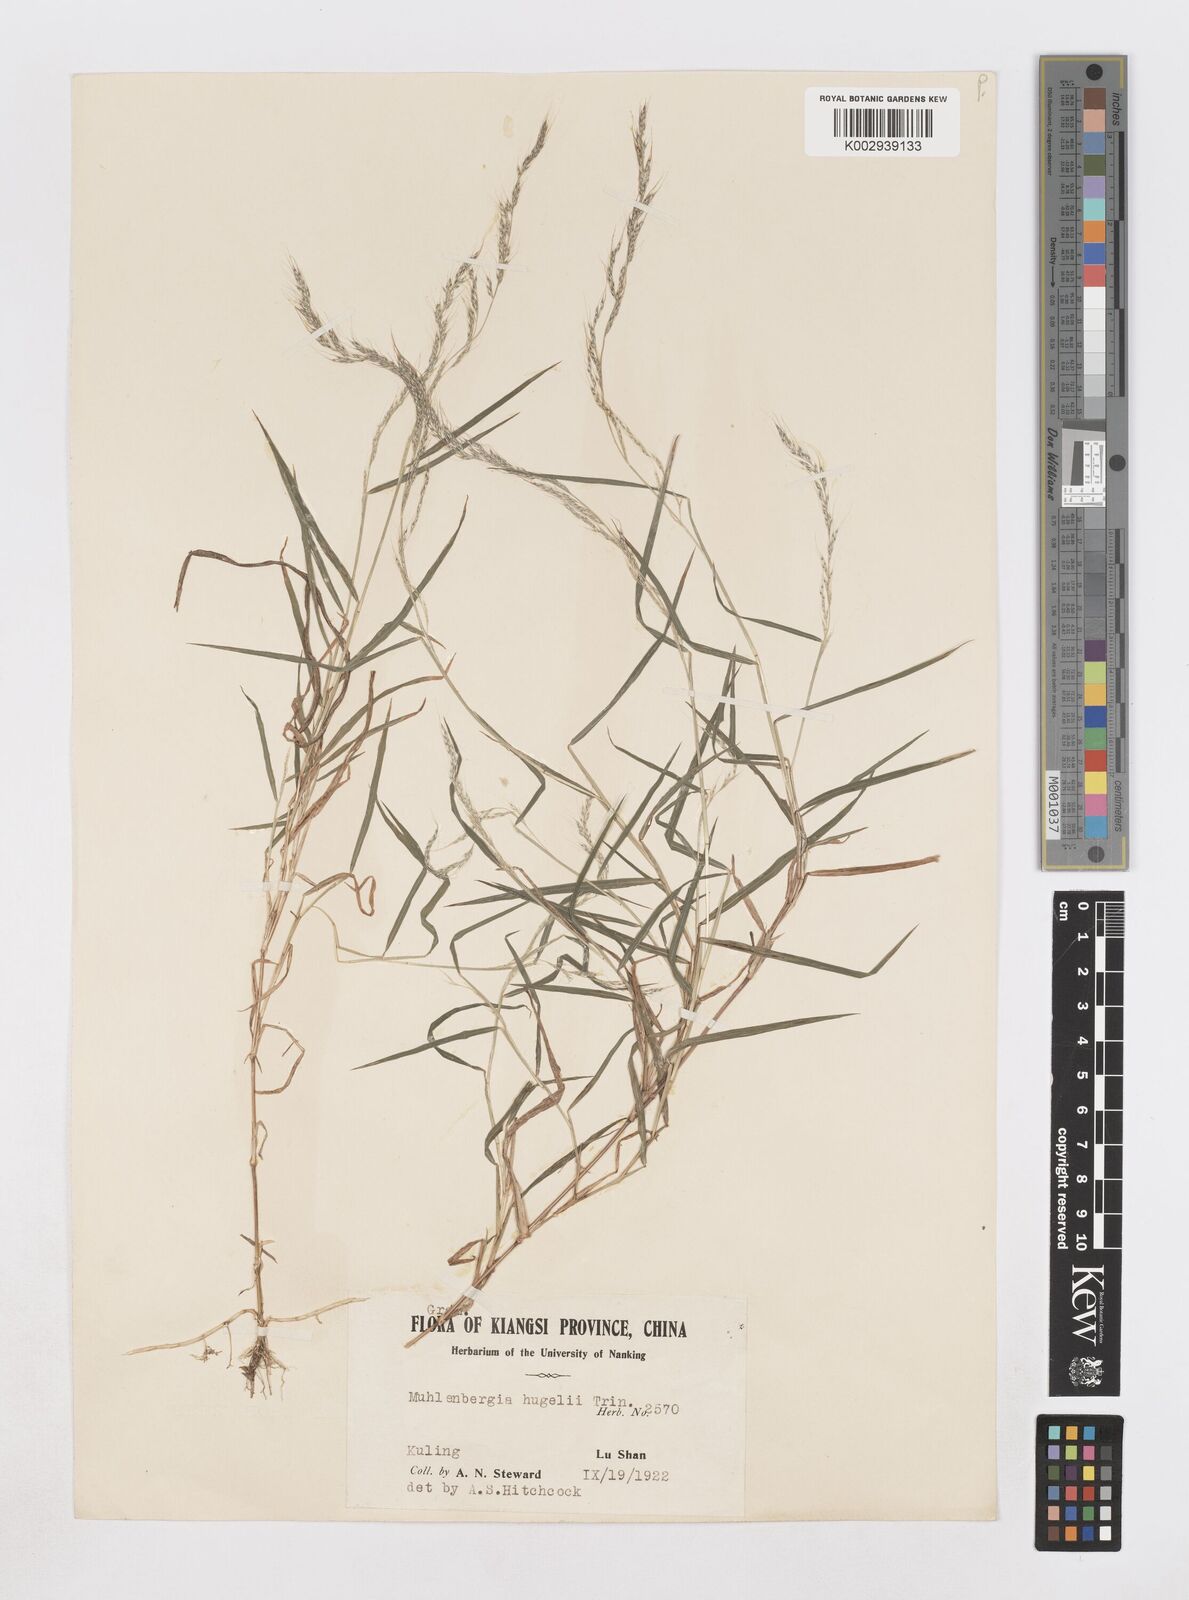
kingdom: Plantae
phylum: Tracheophyta
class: Liliopsida
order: Poales
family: Poaceae
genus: Muhlenbergia
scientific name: Muhlenbergia ramosa
